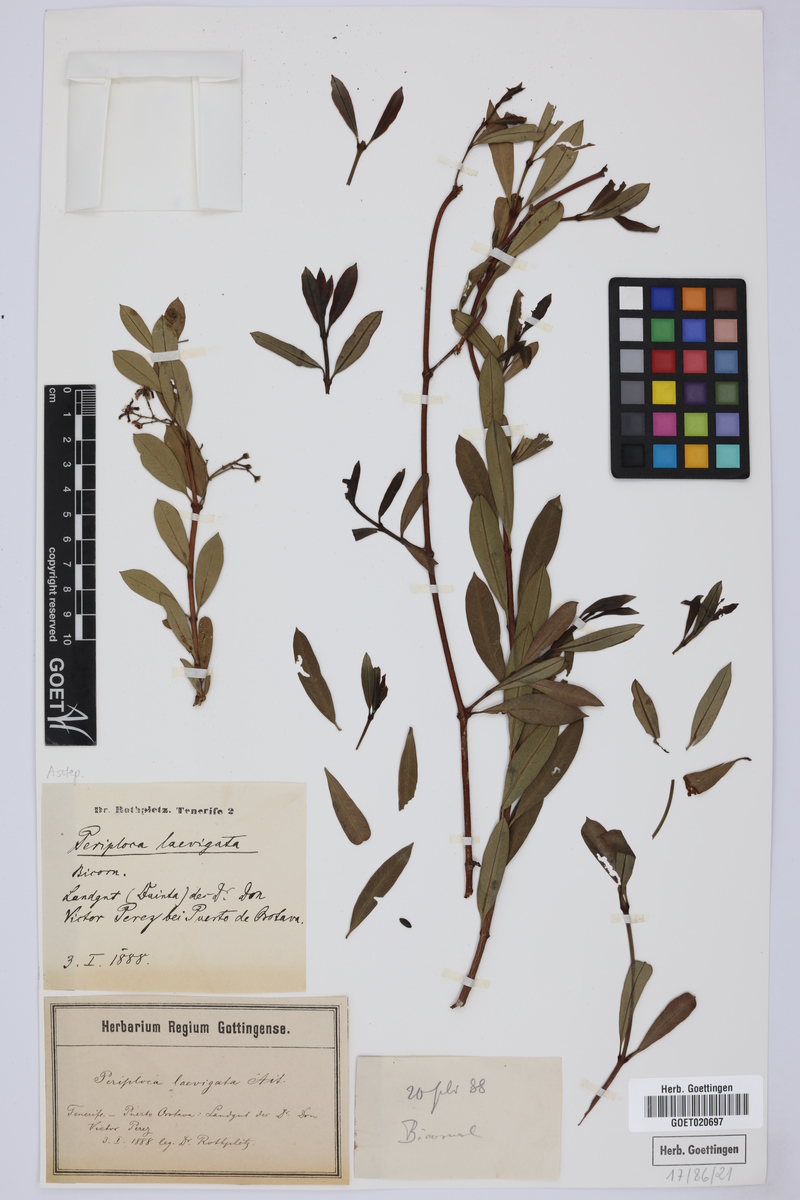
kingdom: Plantae
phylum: Tracheophyta
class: Magnoliopsida
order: Gentianales
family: Apocynaceae
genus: Periploca
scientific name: Periploca laevigata
